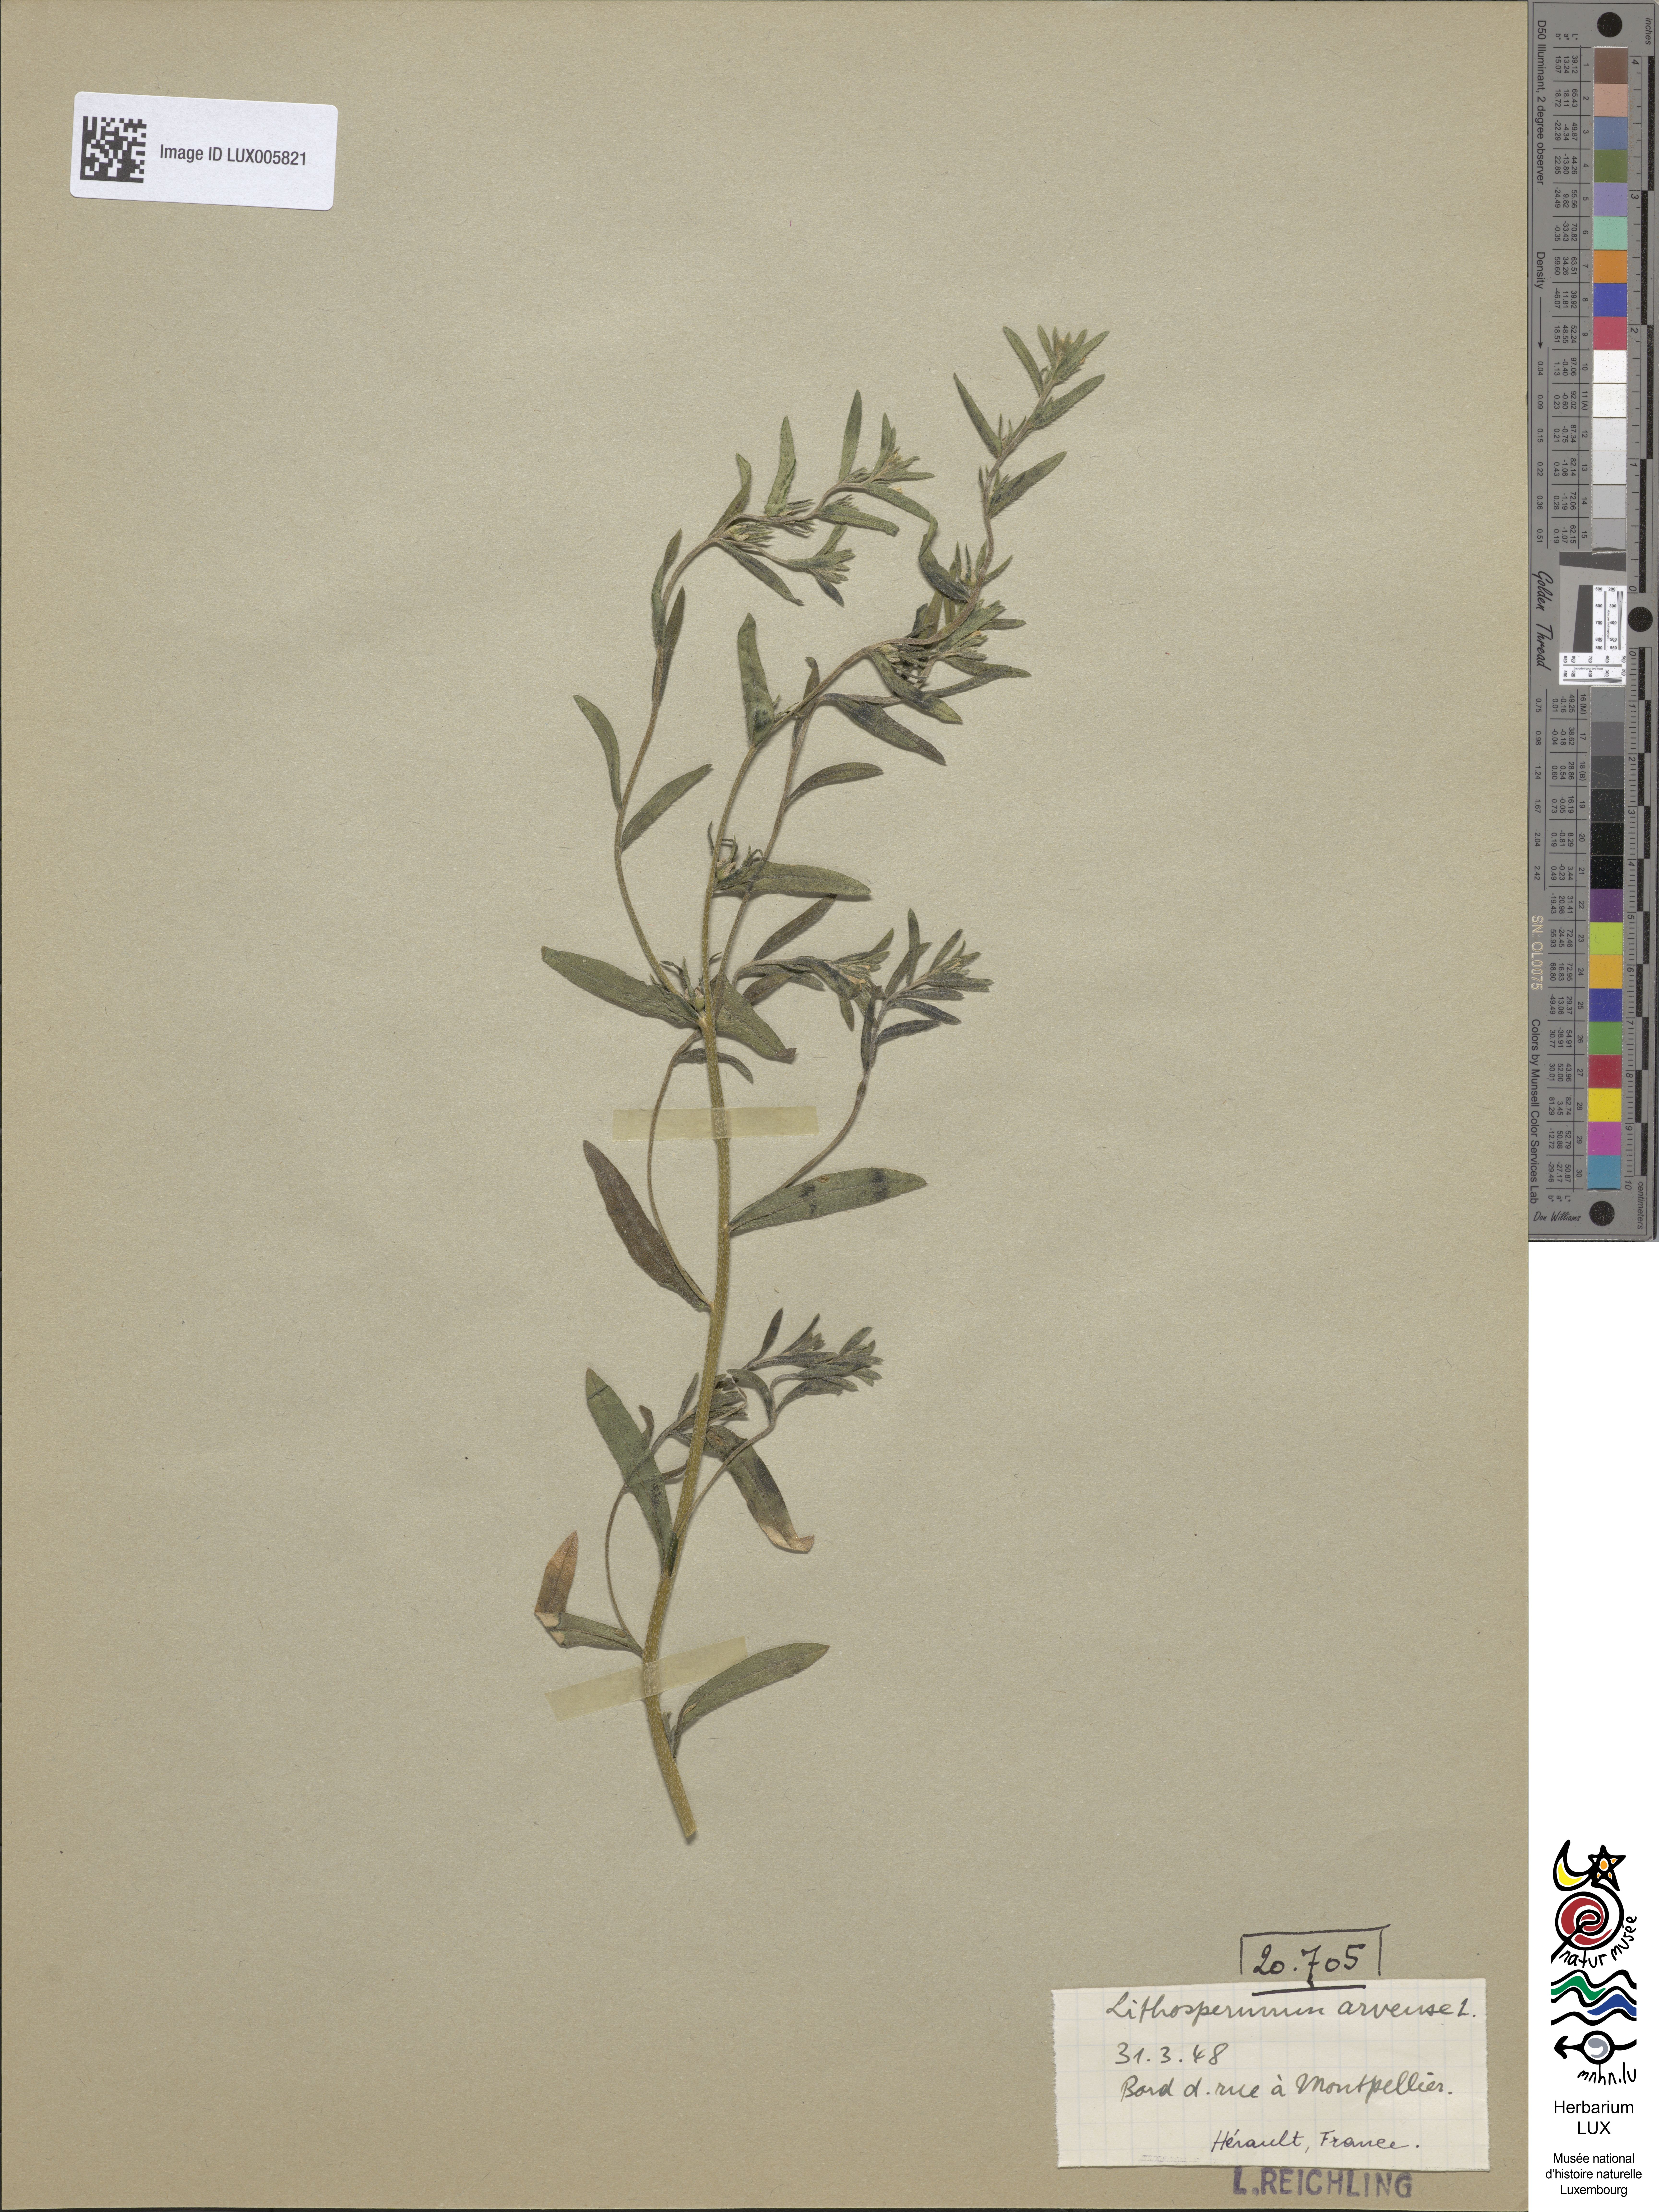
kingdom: Plantae
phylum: Tracheophyta
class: Magnoliopsida
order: Boraginales
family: Boraginaceae
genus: Buglossoides
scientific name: Buglossoides arvensis
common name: Corn gromwell
